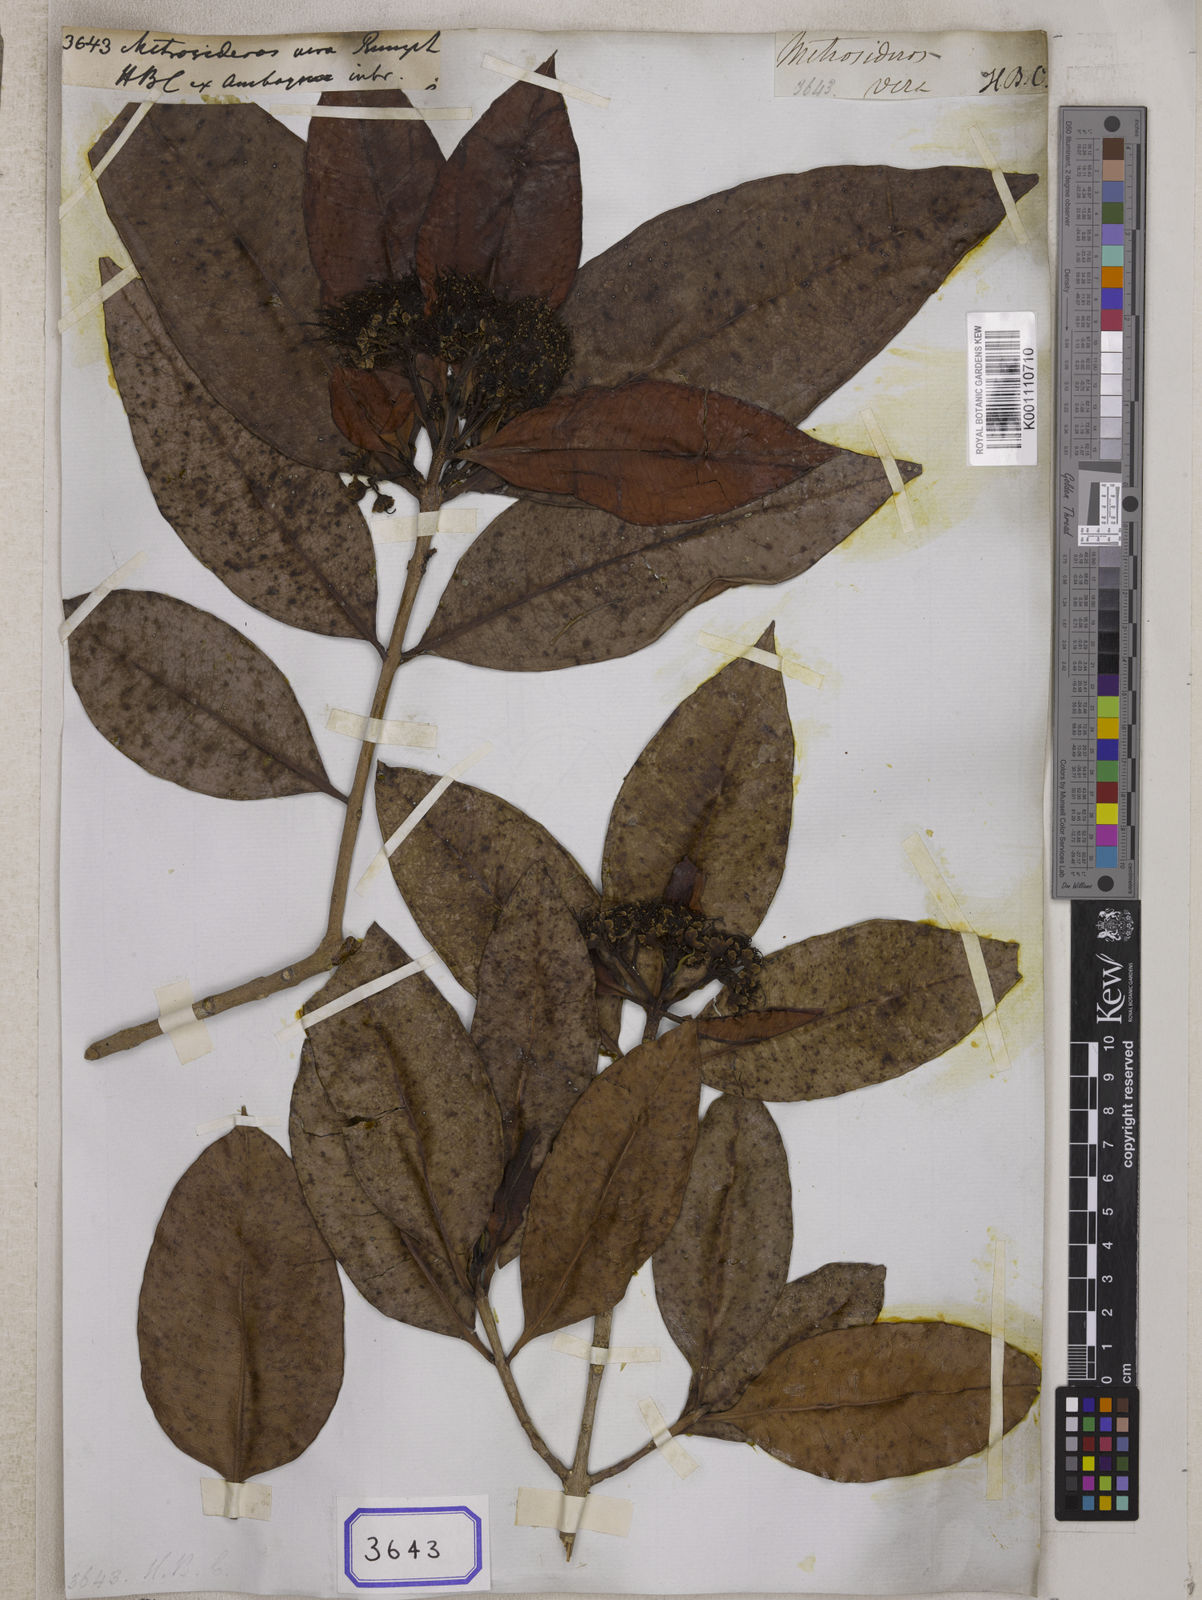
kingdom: Plantae
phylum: Tracheophyta
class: Magnoliopsida
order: Myrtales
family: Myrtaceae
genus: Xanthostemon
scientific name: Xanthostemon verus
